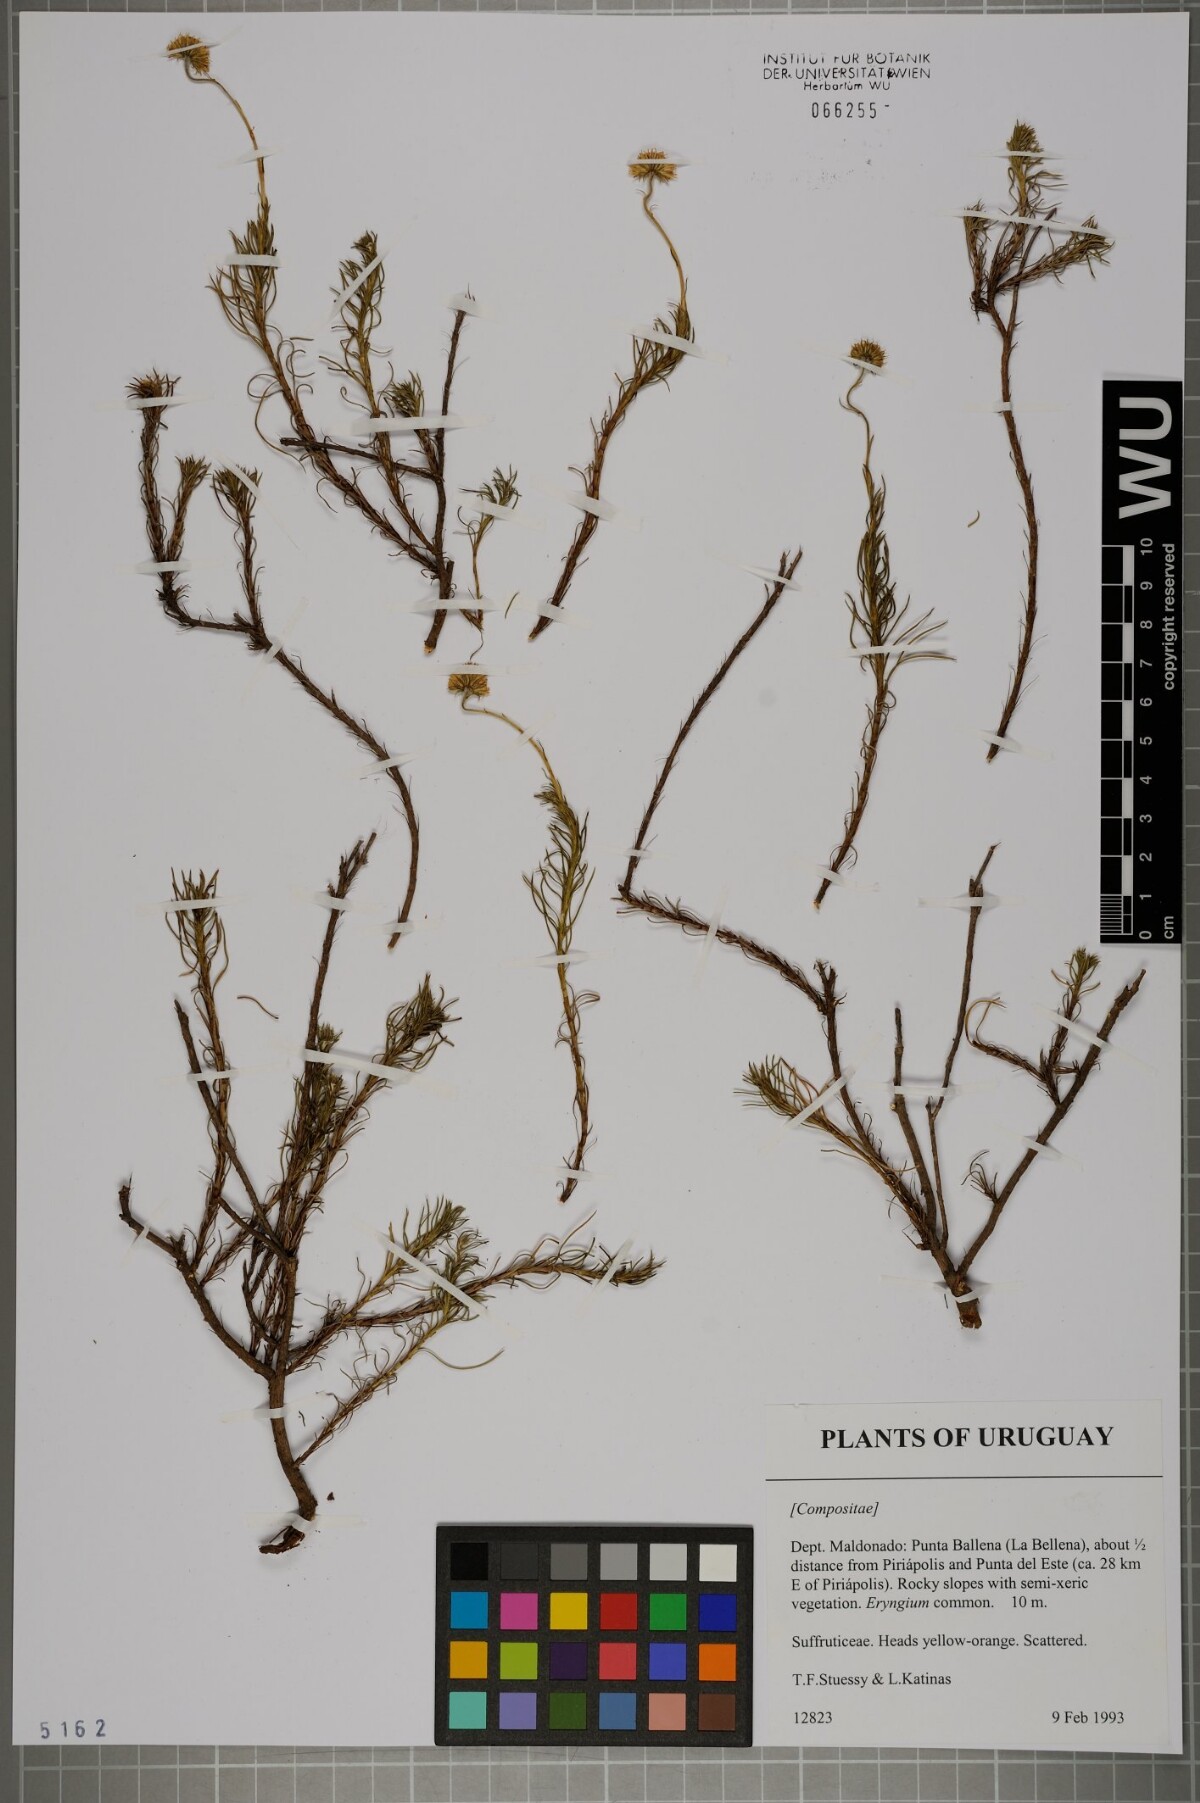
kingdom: Plantae
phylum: Tracheophyta
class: Magnoliopsida
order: Asterales
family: Asteraceae
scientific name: Asteraceae
